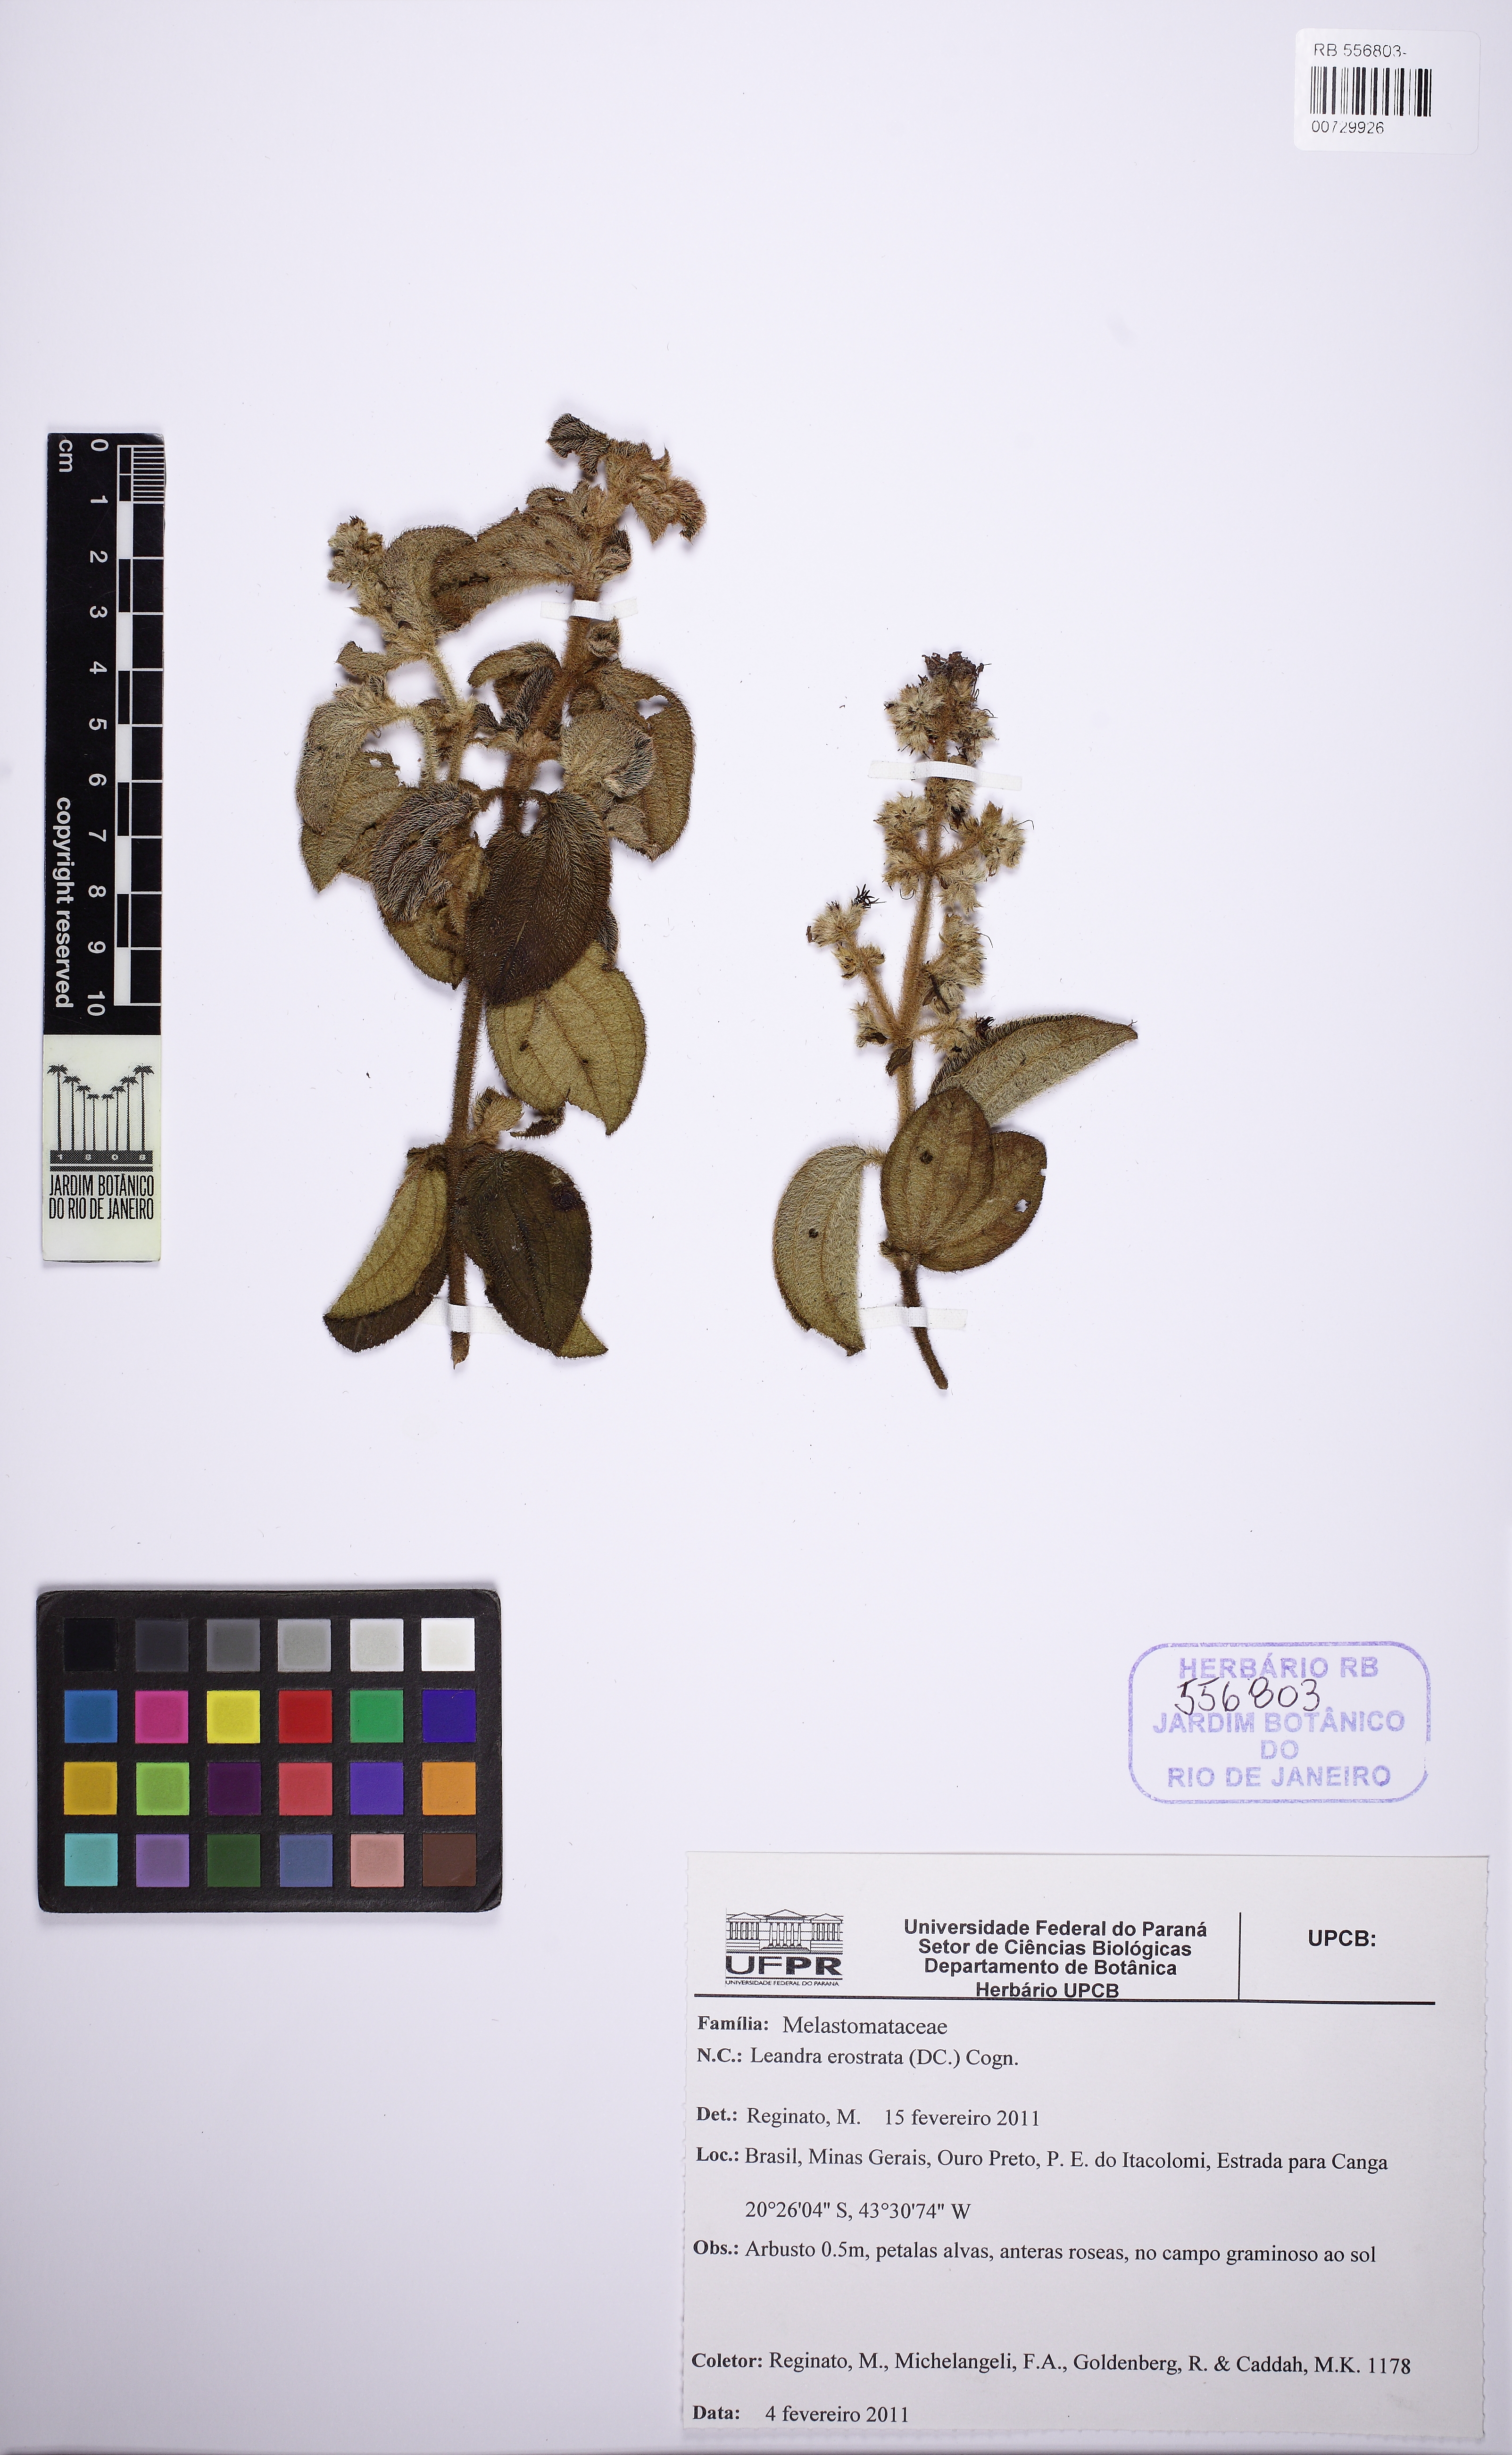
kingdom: Plantae
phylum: Tracheophyta
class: Magnoliopsida
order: Myrtales
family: Melastomataceae
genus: Miconia
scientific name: Miconia erostrata
